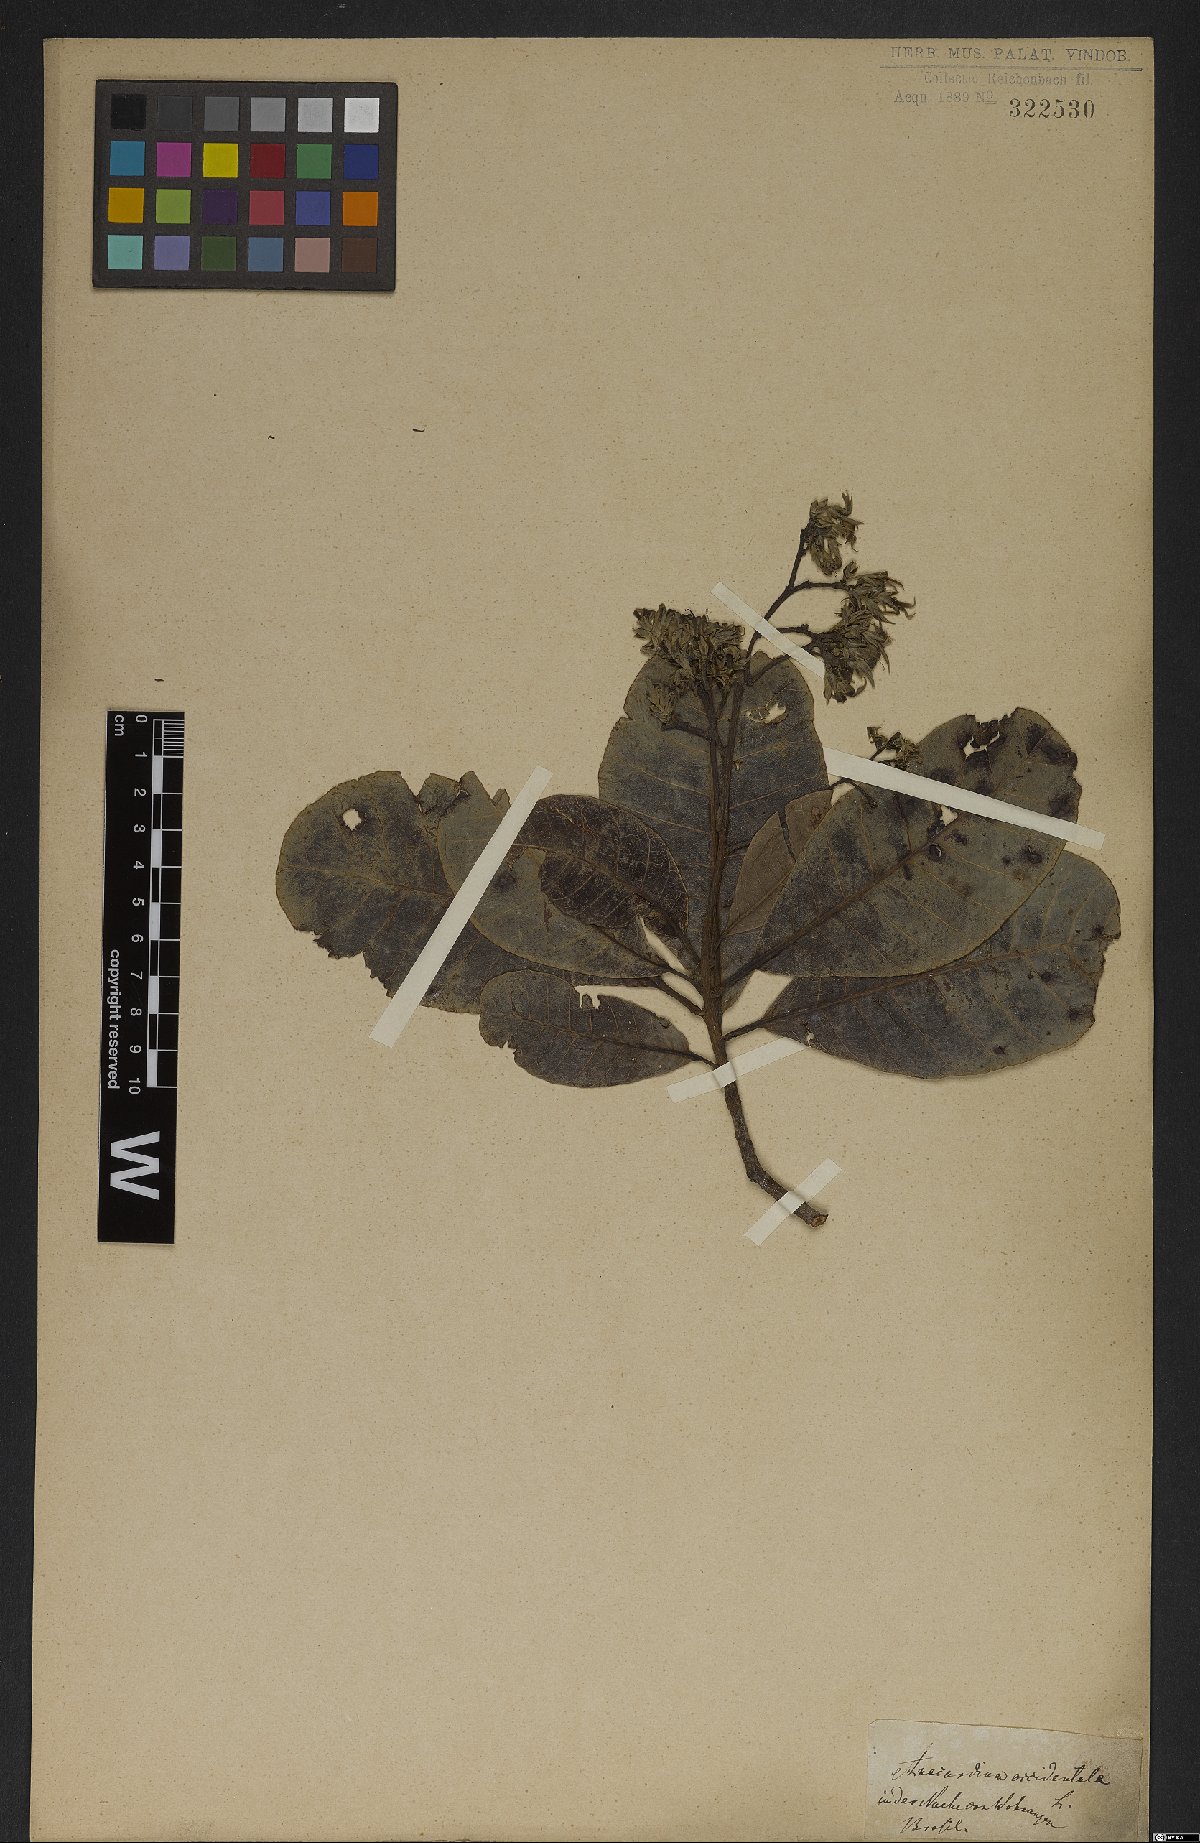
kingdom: Plantae
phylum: Tracheophyta
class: Magnoliopsida
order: Sapindales
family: Anacardiaceae
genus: Anacardium
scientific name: Anacardium occidentale
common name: Cashew
